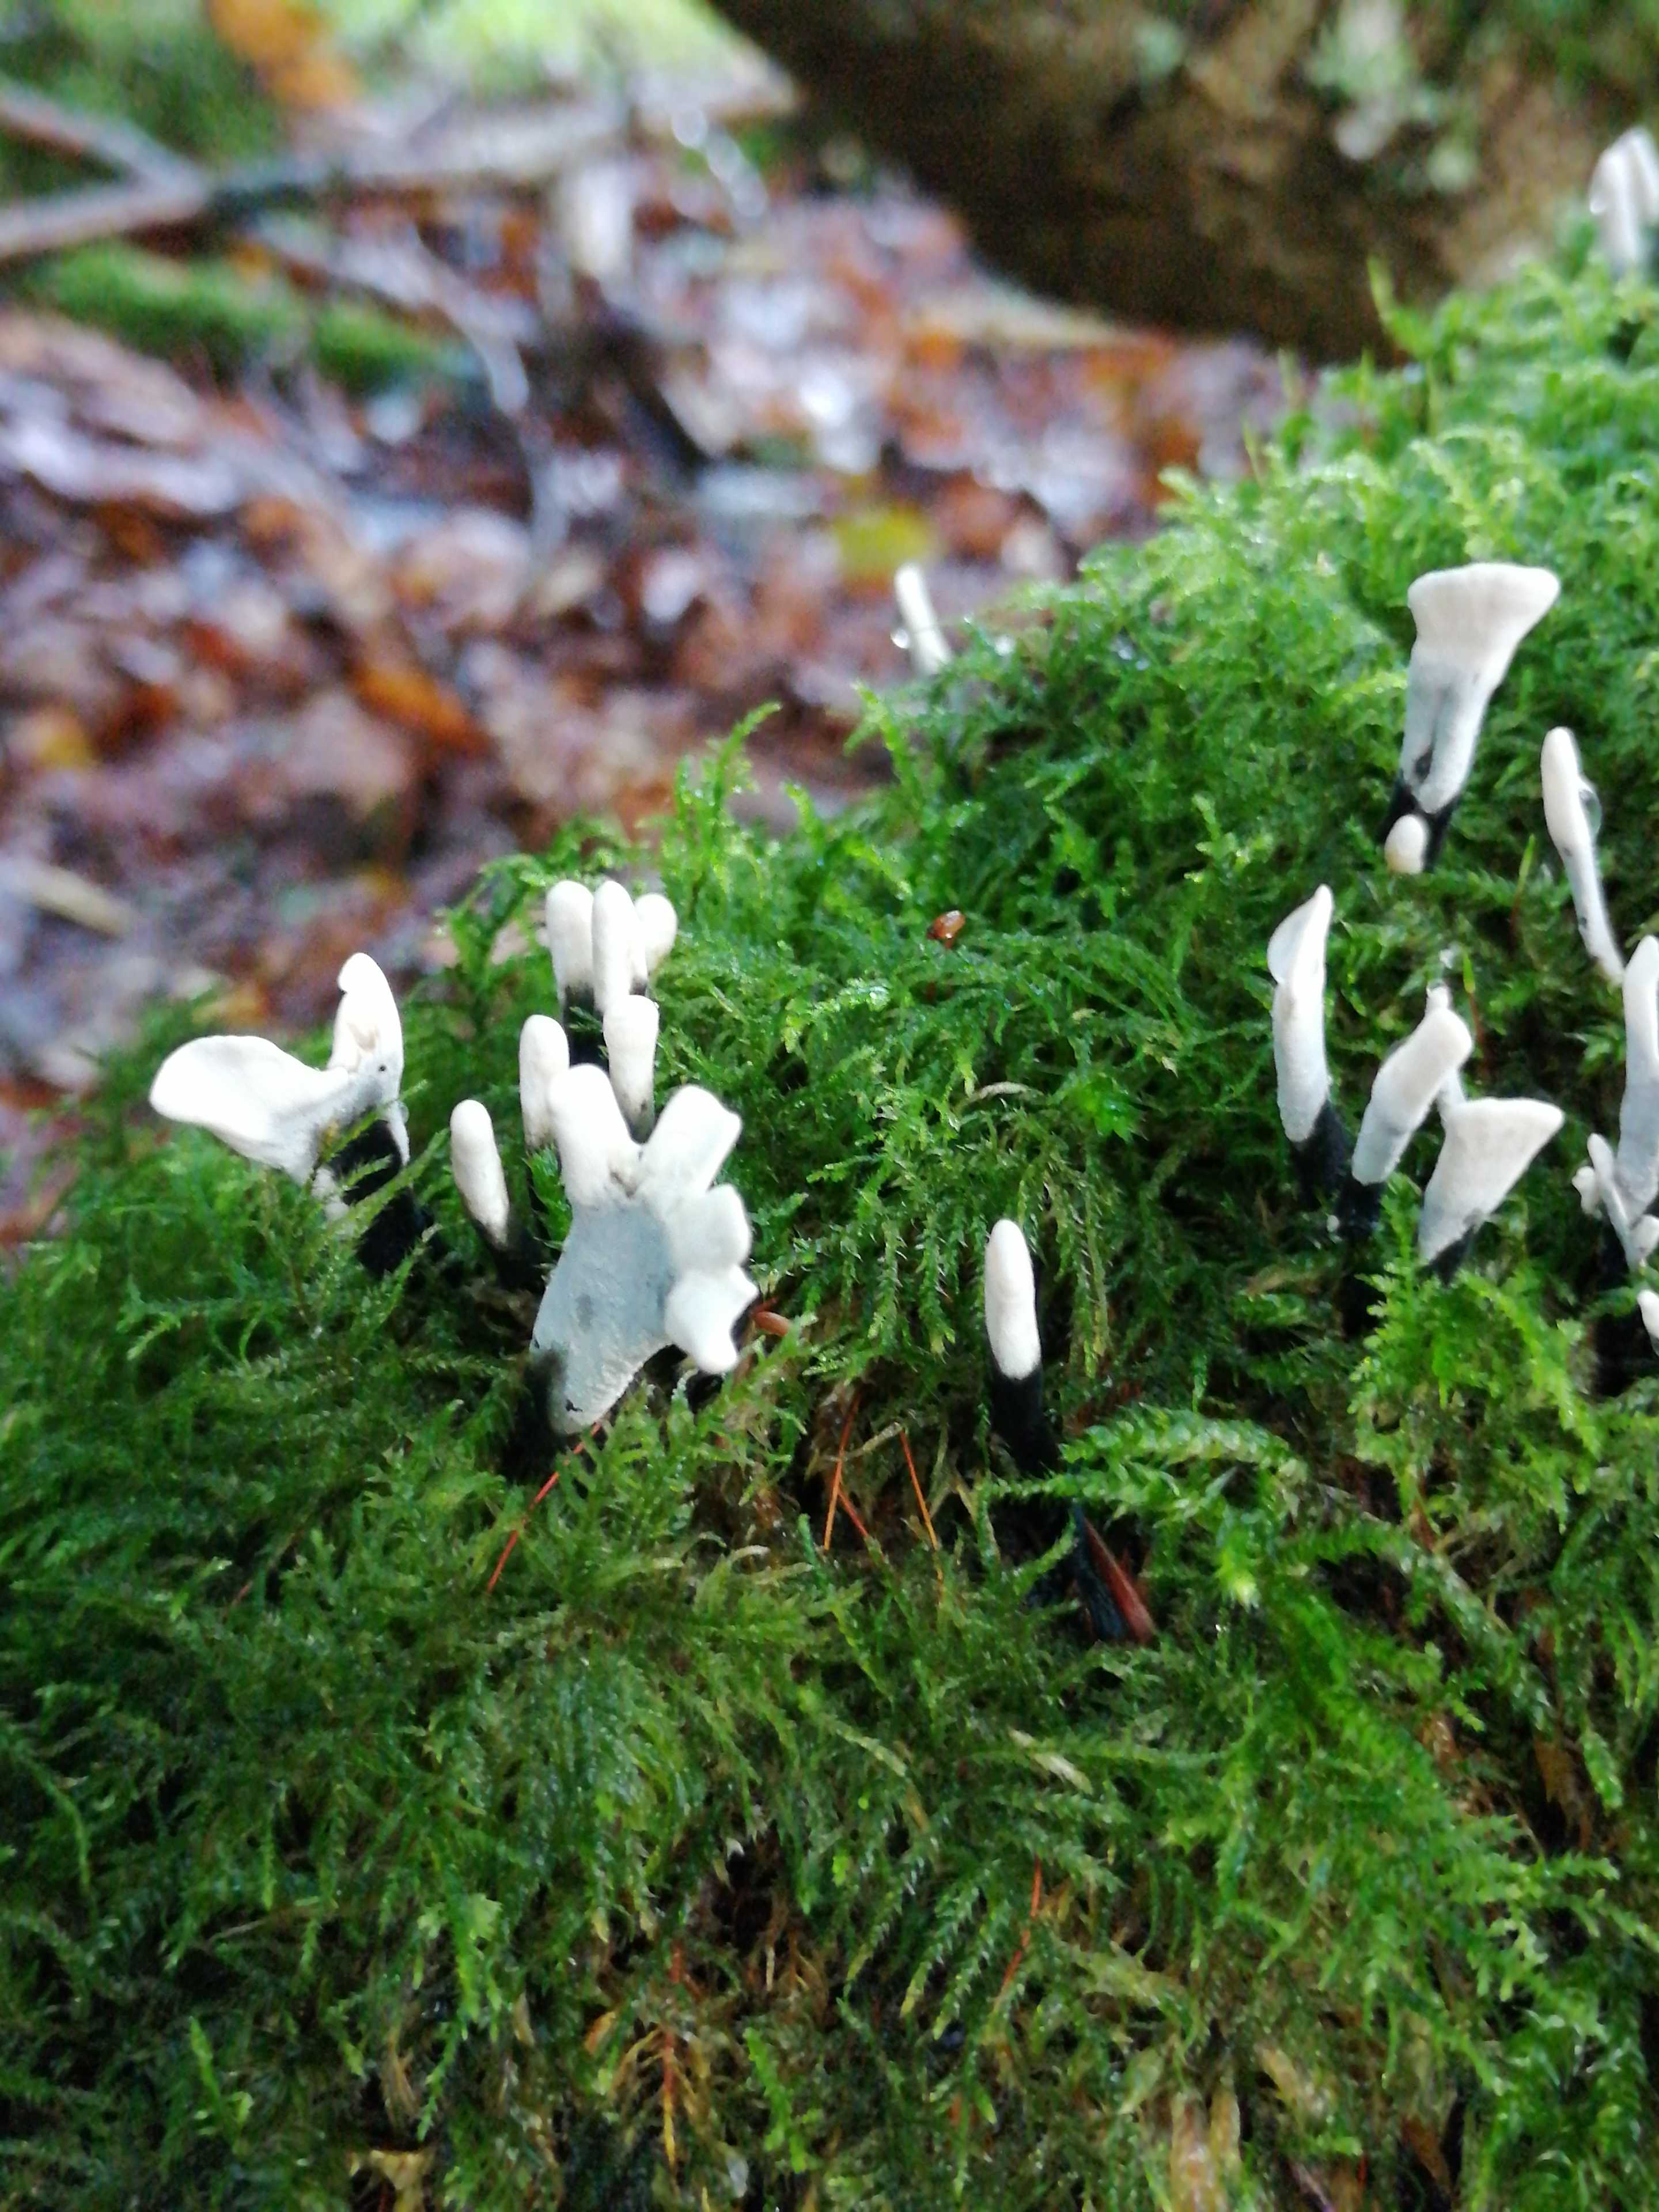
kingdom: Fungi
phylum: Ascomycota
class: Sordariomycetes
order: Xylariales
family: Xylariaceae
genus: Xylaria
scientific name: Xylaria hypoxylon
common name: grenet stødsvamp
